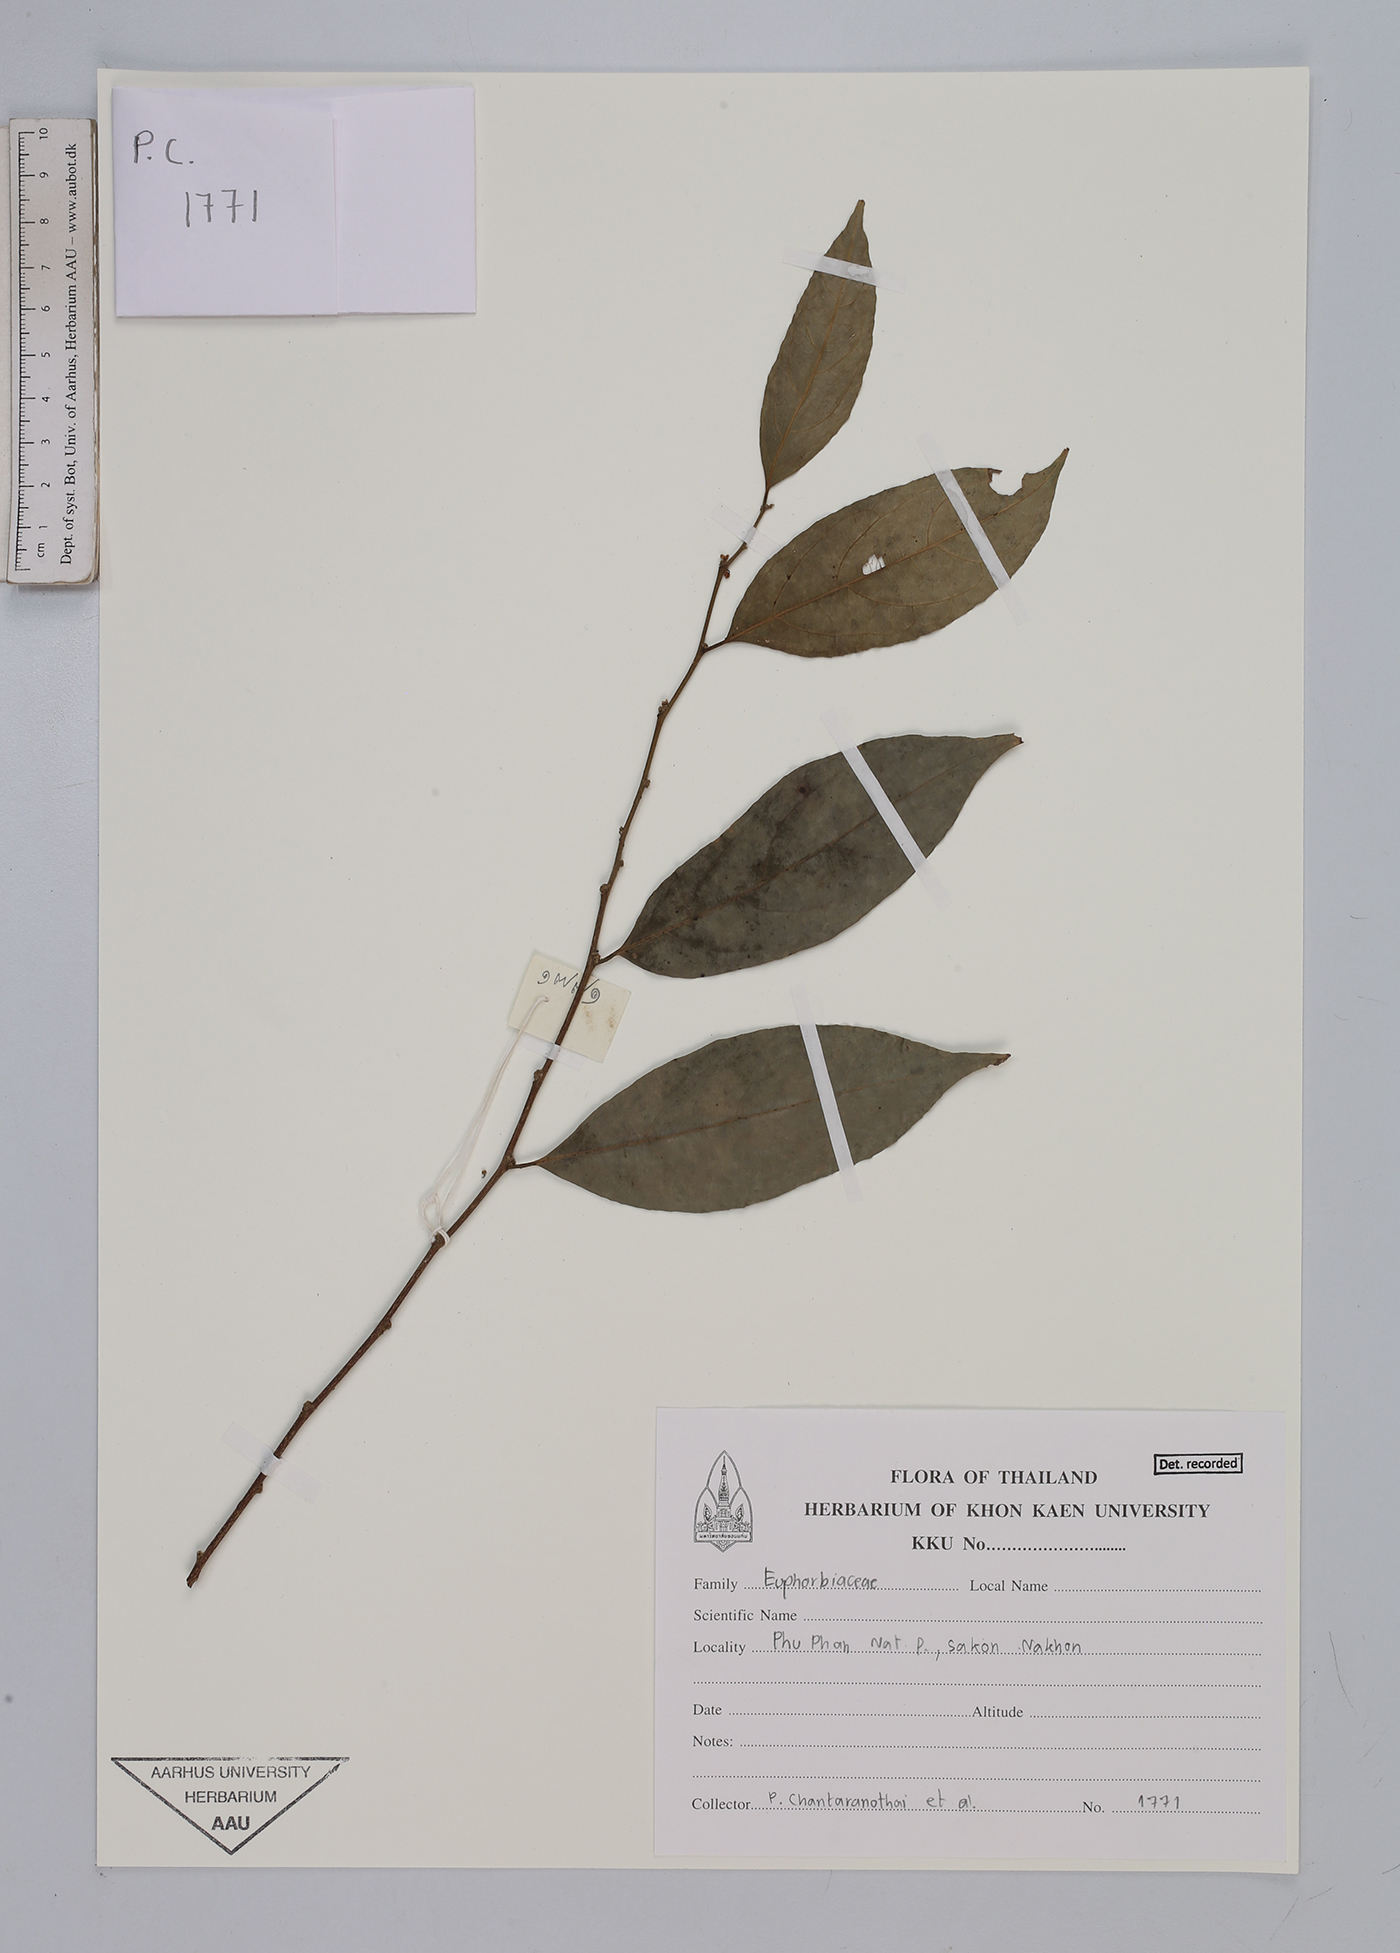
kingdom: Plantae
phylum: Tracheophyta
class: Magnoliopsida
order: Malpighiales
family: Euphorbiaceae
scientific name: Euphorbiaceae
